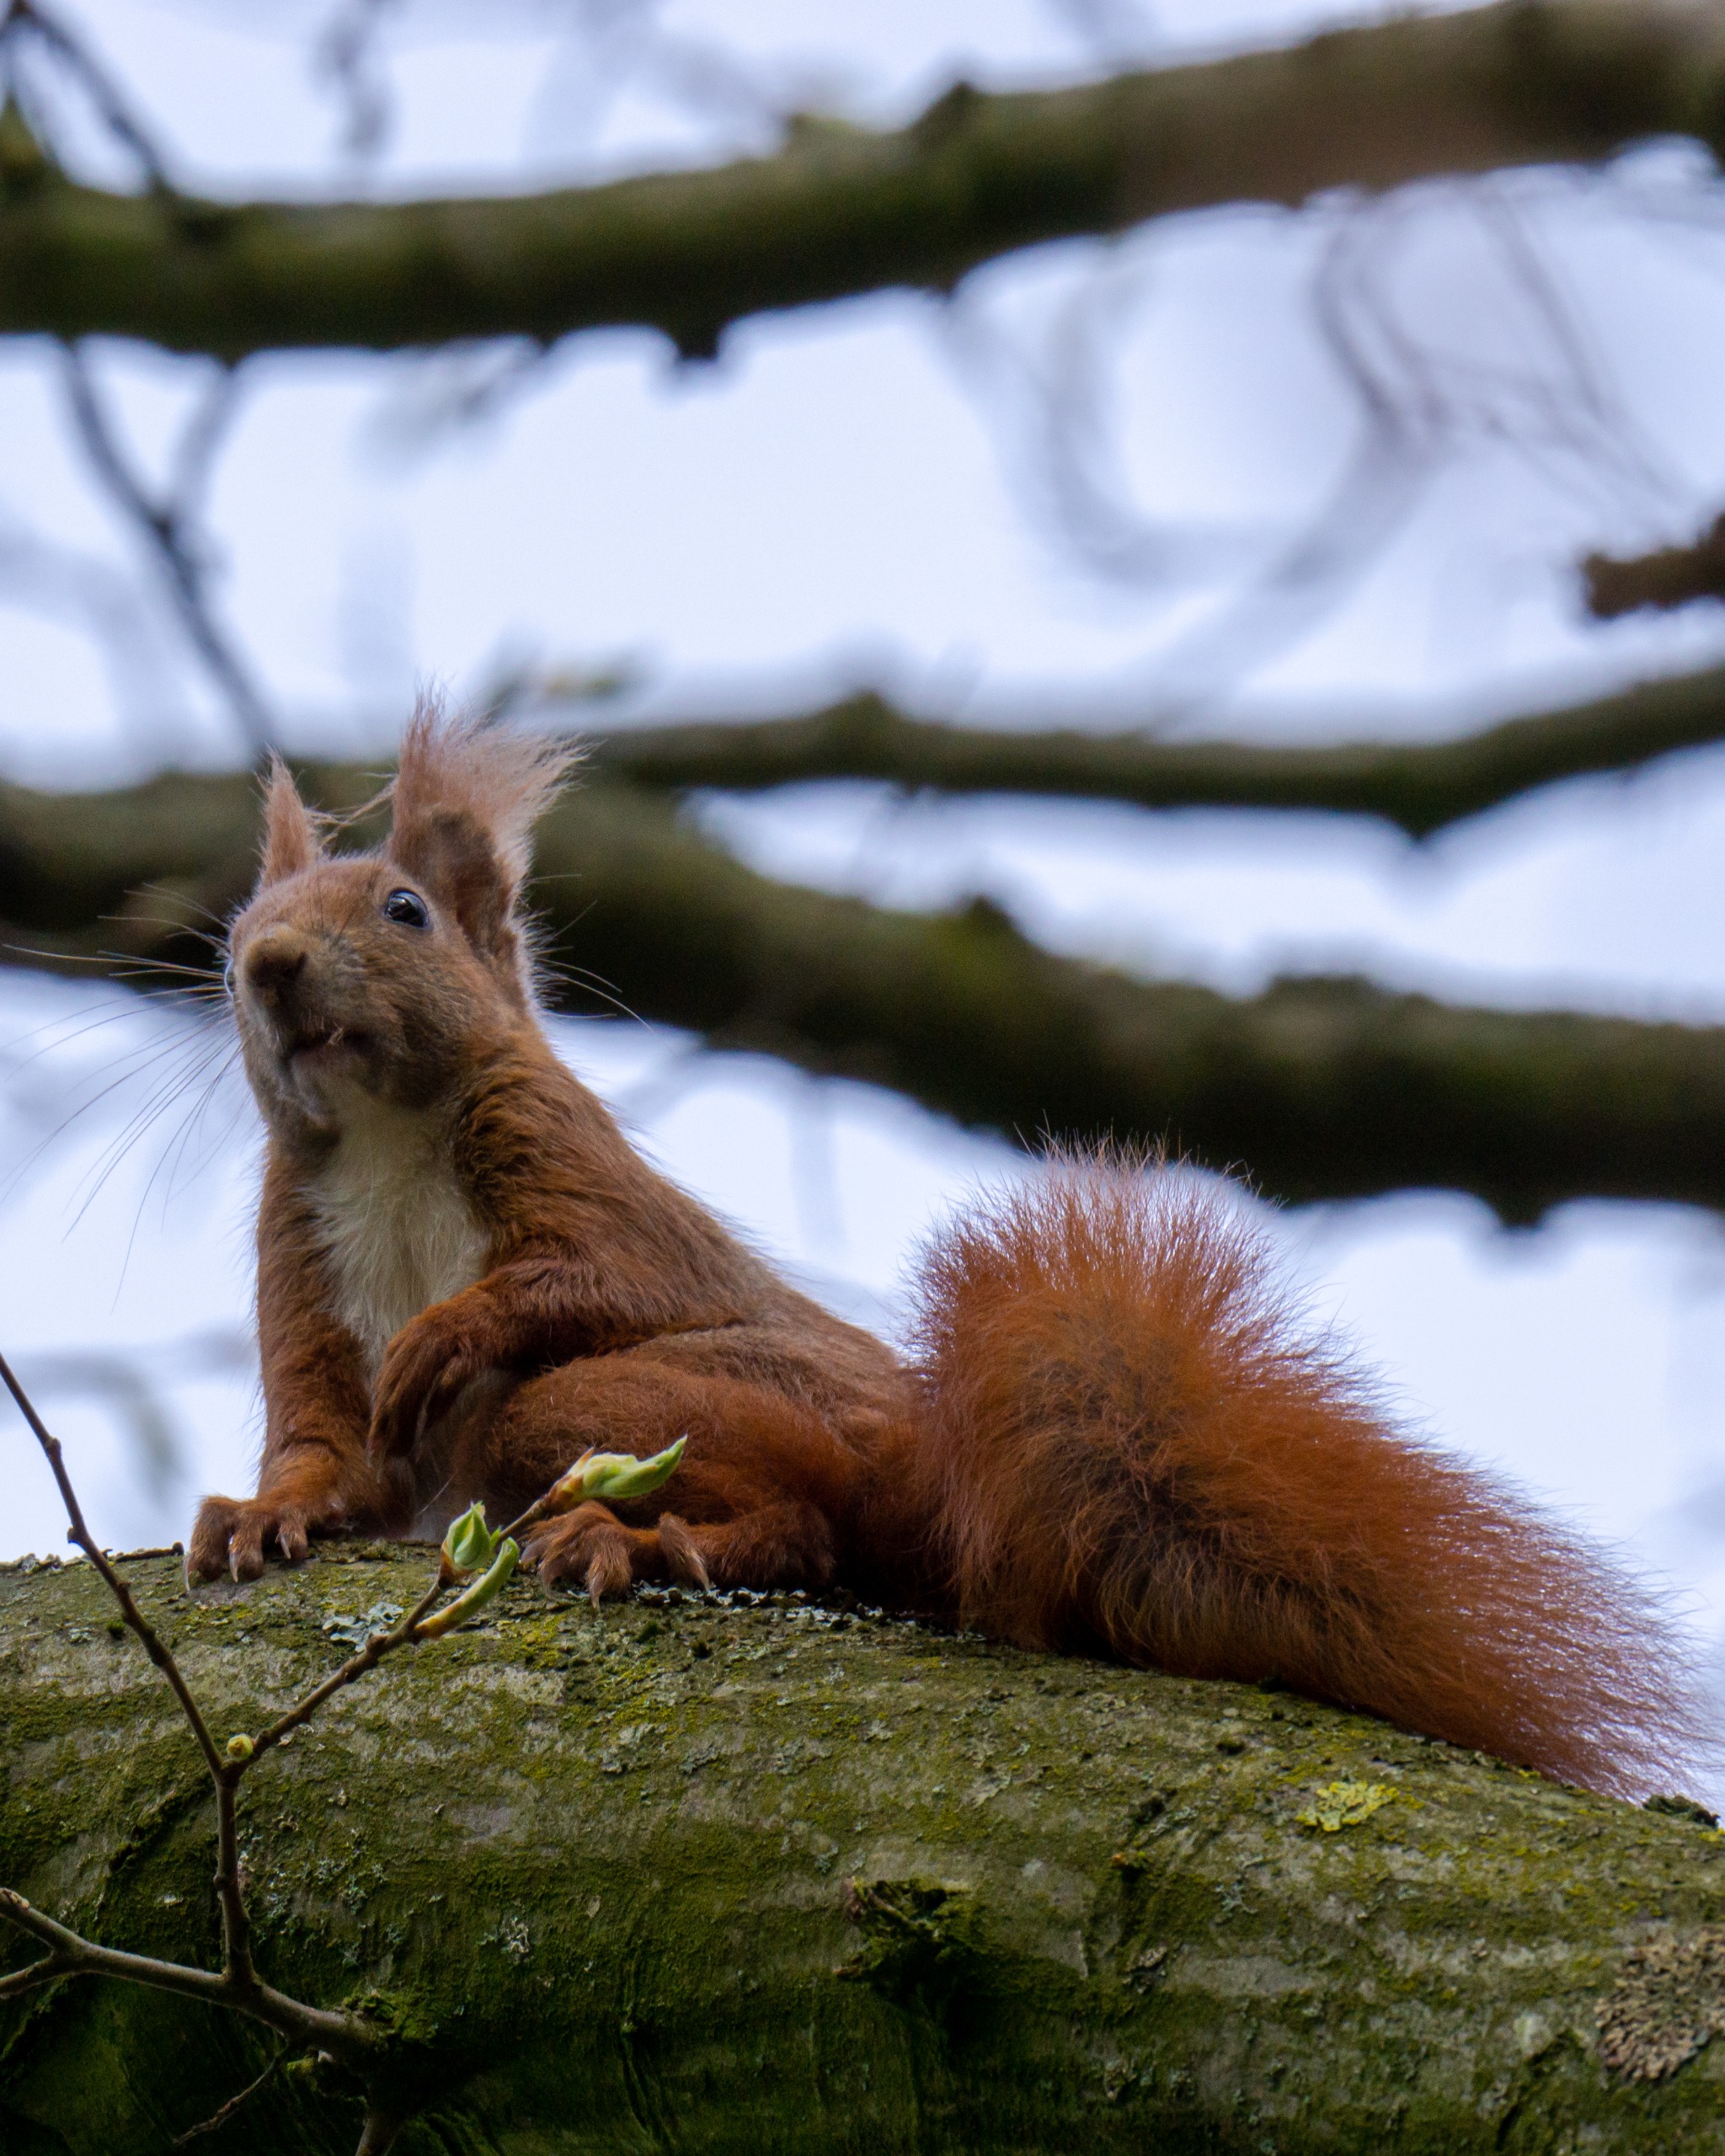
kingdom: Animalia
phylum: Chordata
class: Mammalia
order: Rodentia
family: Sciuridae
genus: Sciurus
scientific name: Sciurus vulgaris
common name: Egern
